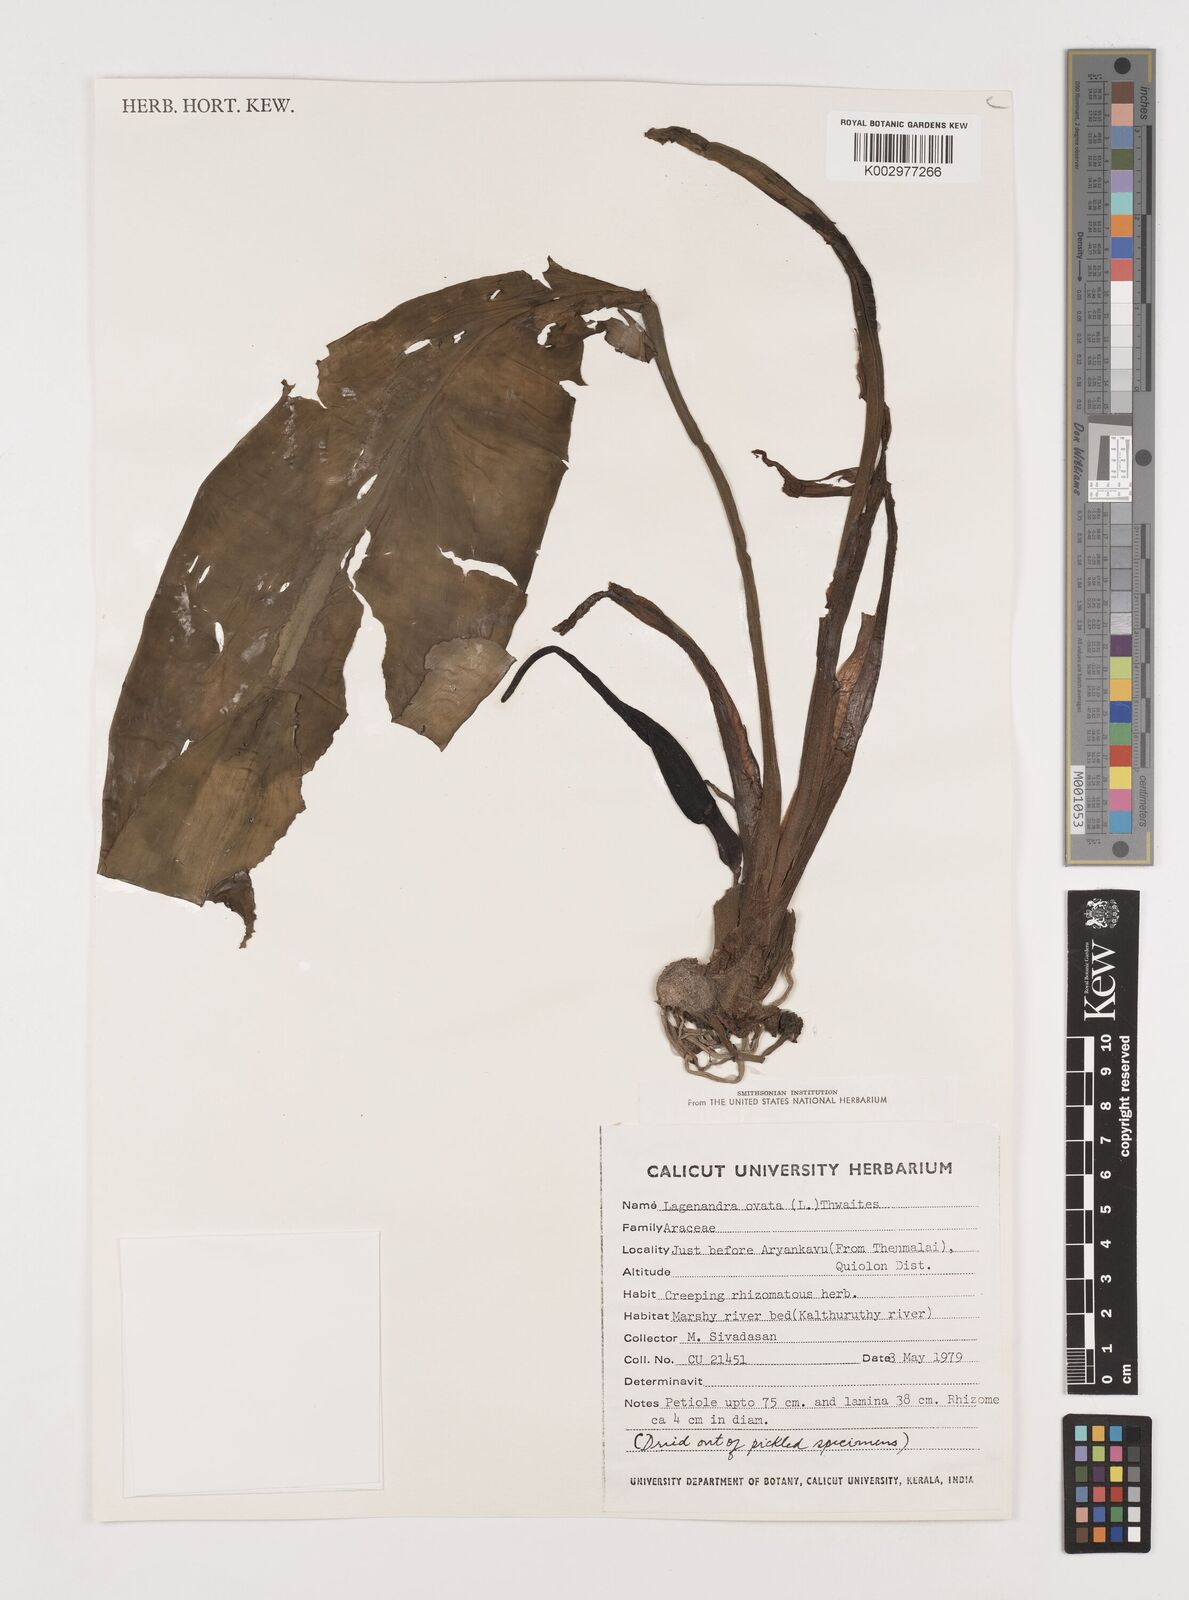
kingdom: Plantae
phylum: Tracheophyta
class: Liliopsida
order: Alismatales
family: Araceae
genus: Lagenandra
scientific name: Lagenandra ovata
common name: Malayan sword
